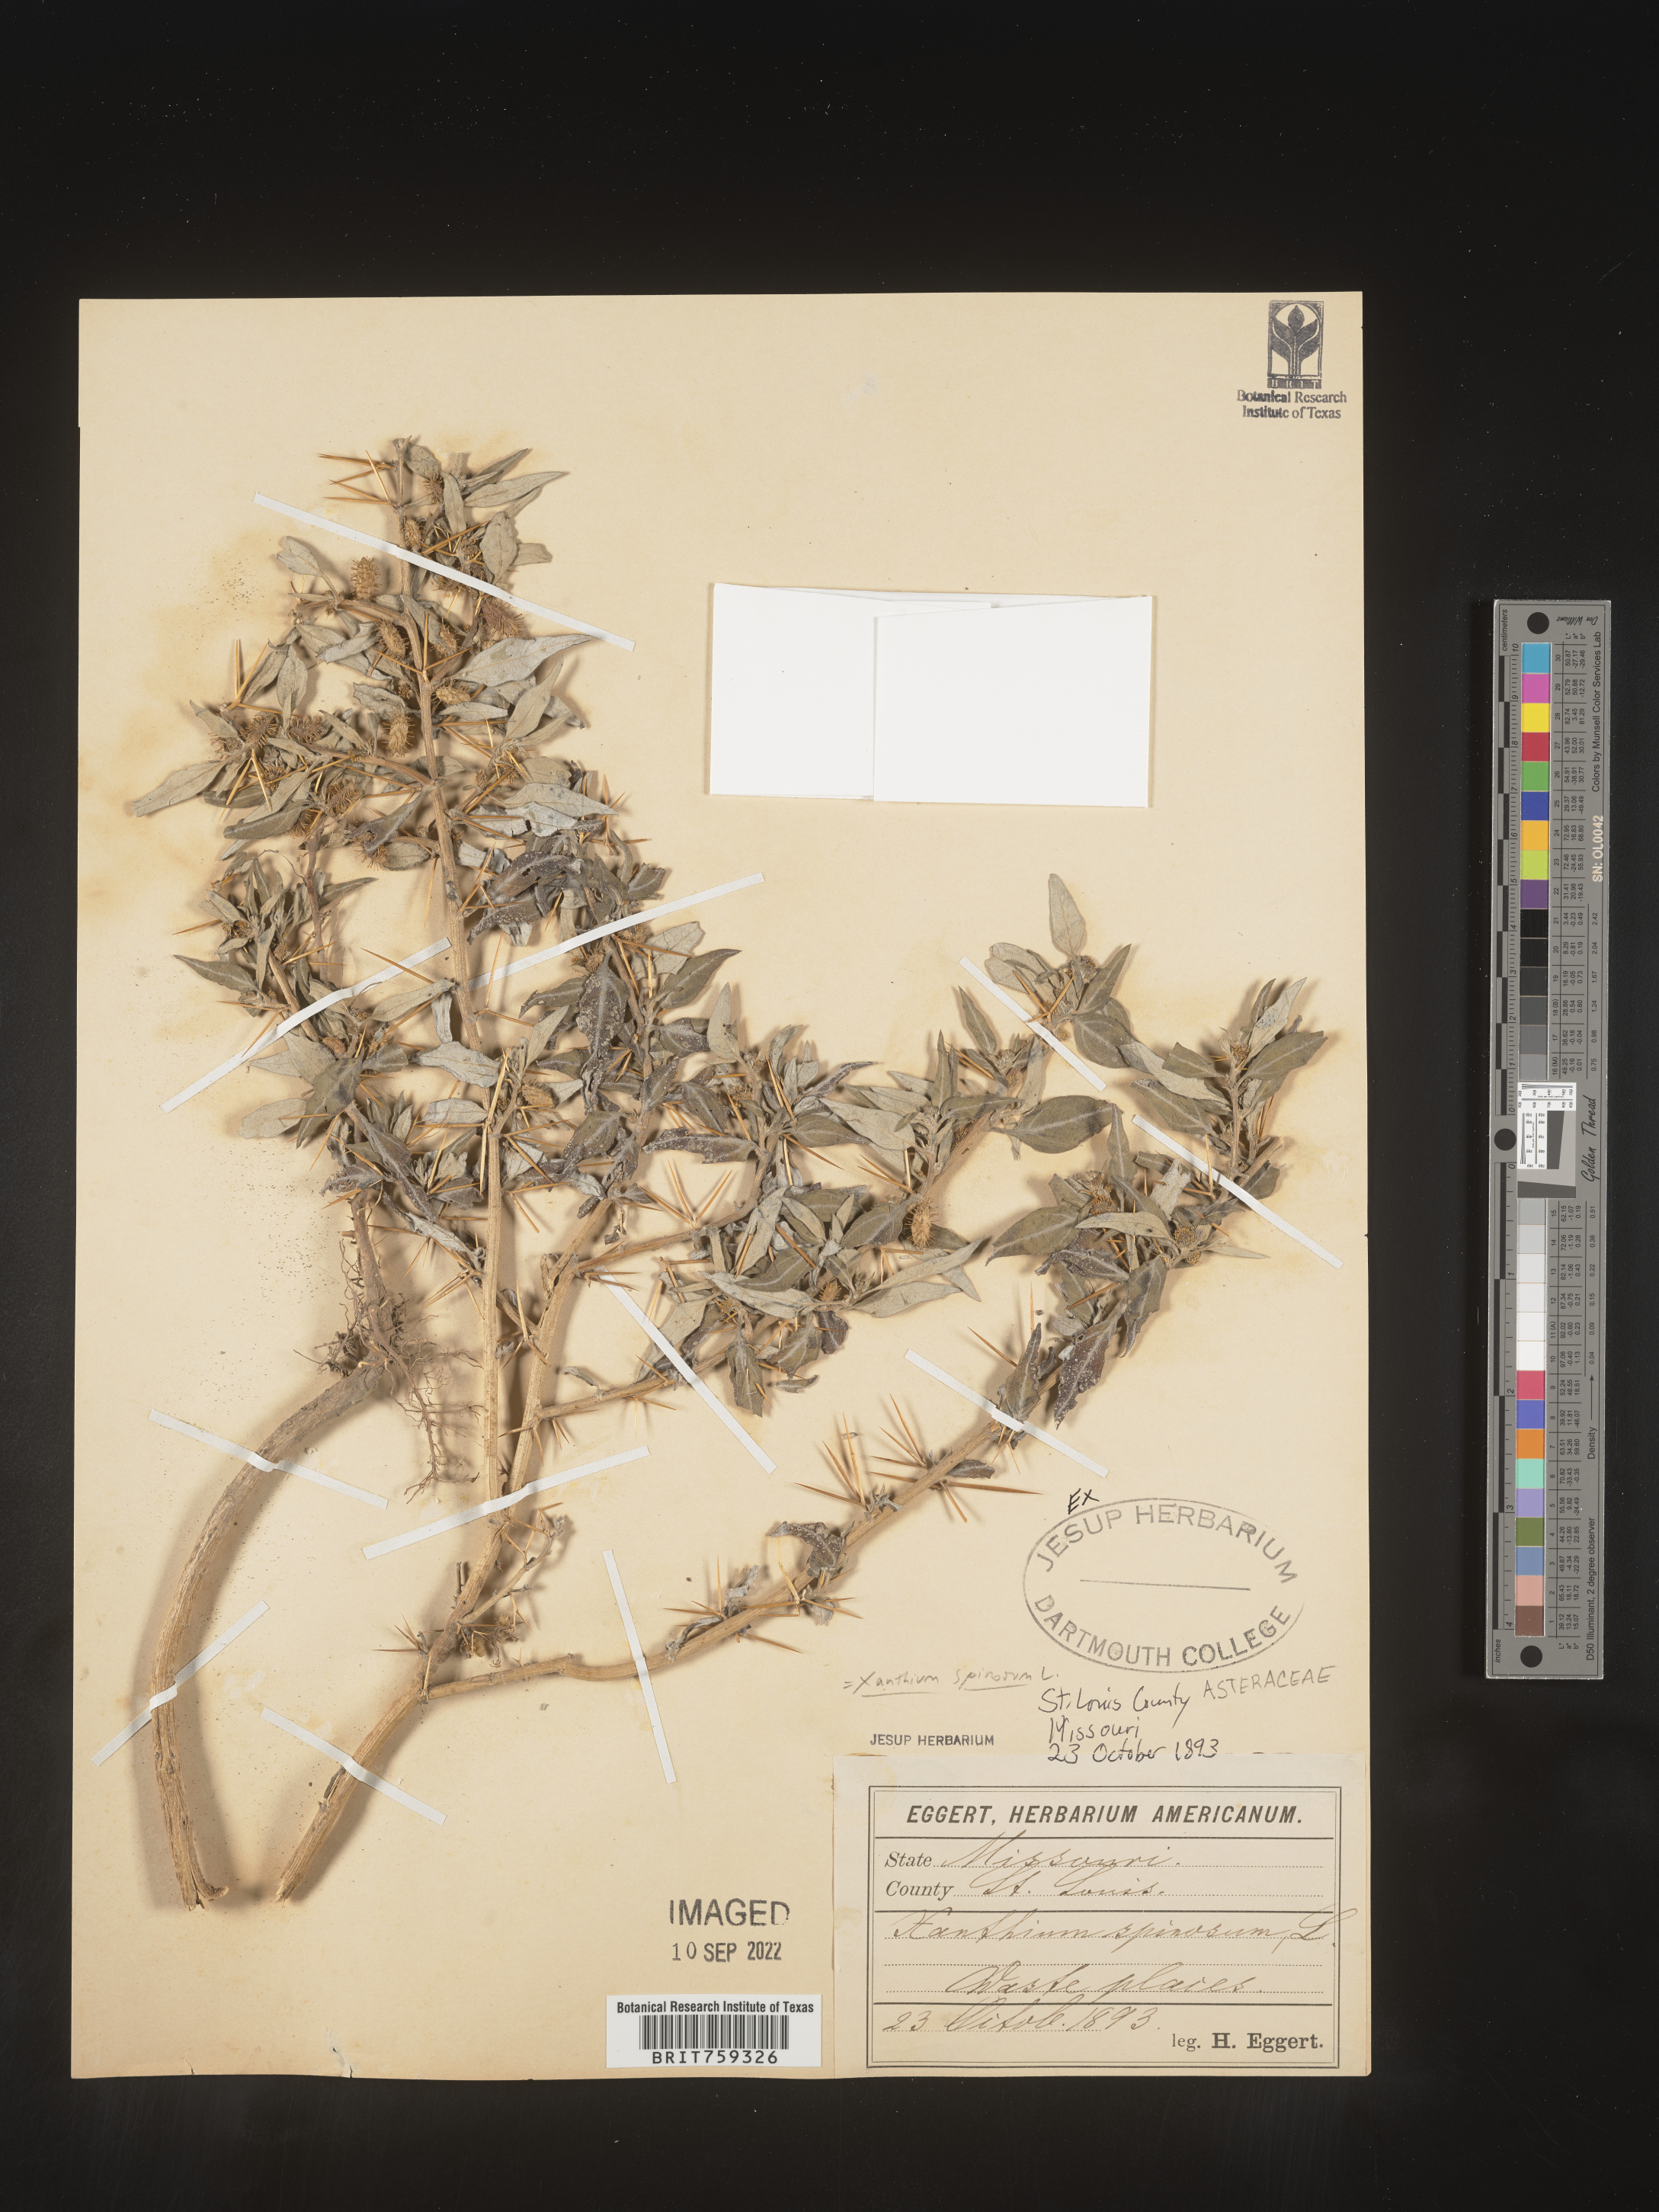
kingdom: Plantae
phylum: Tracheophyta
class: Magnoliopsida
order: Asterales
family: Asteraceae
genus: Xanthium
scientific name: Xanthium spinosum
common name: Spiny cocklebur
